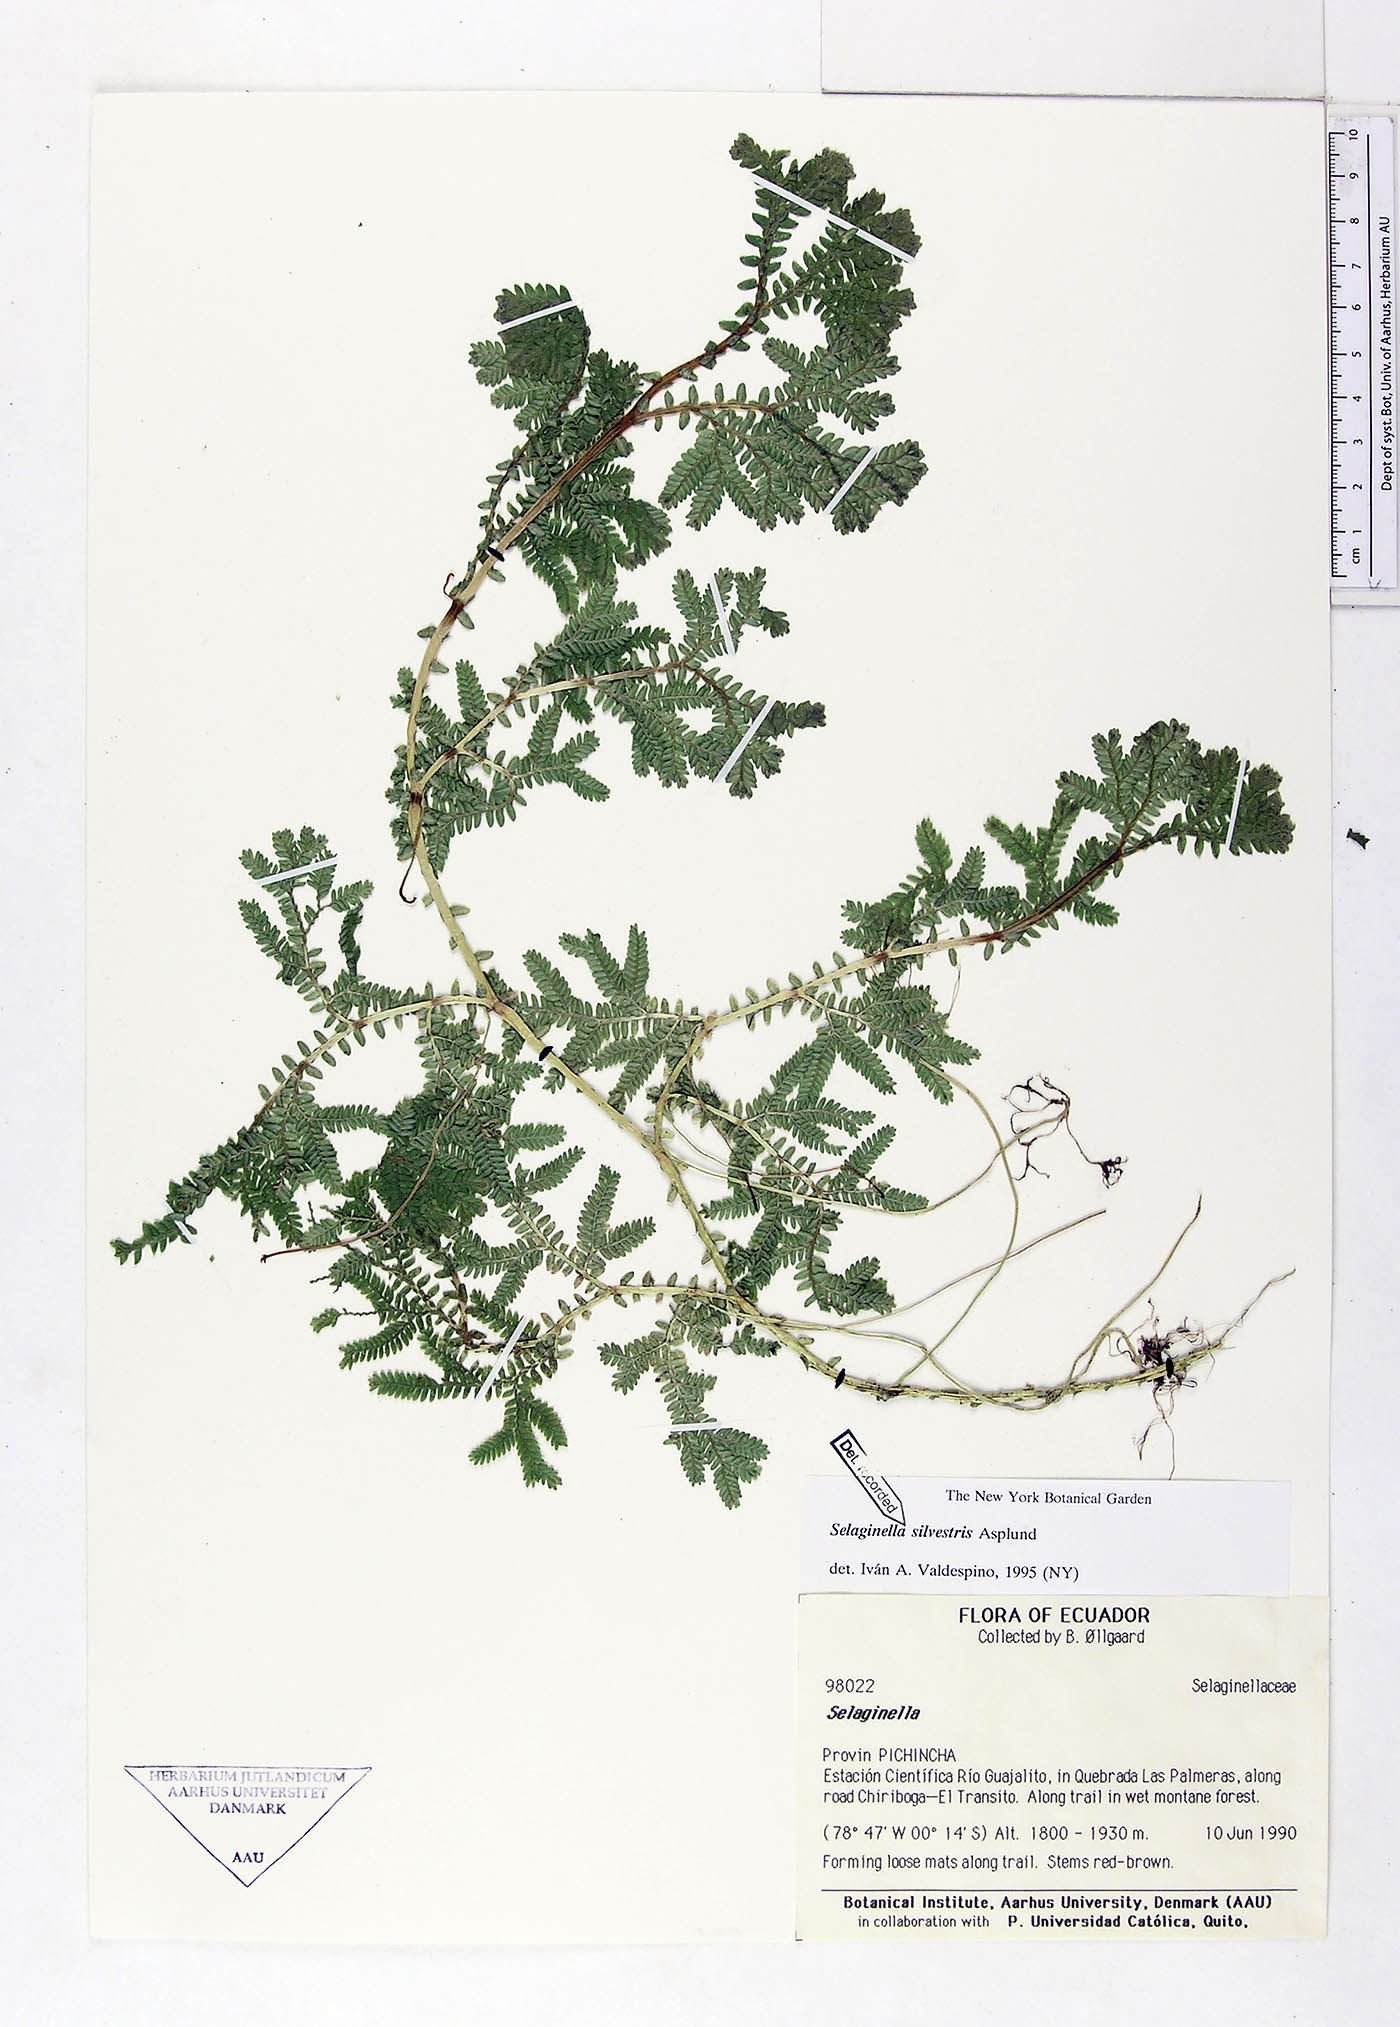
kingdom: Plantae
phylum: Tracheophyta
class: Lycopodiopsida
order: Selaginellales
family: Selaginellaceae
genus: Selaginella
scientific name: Selaginella silvestris
